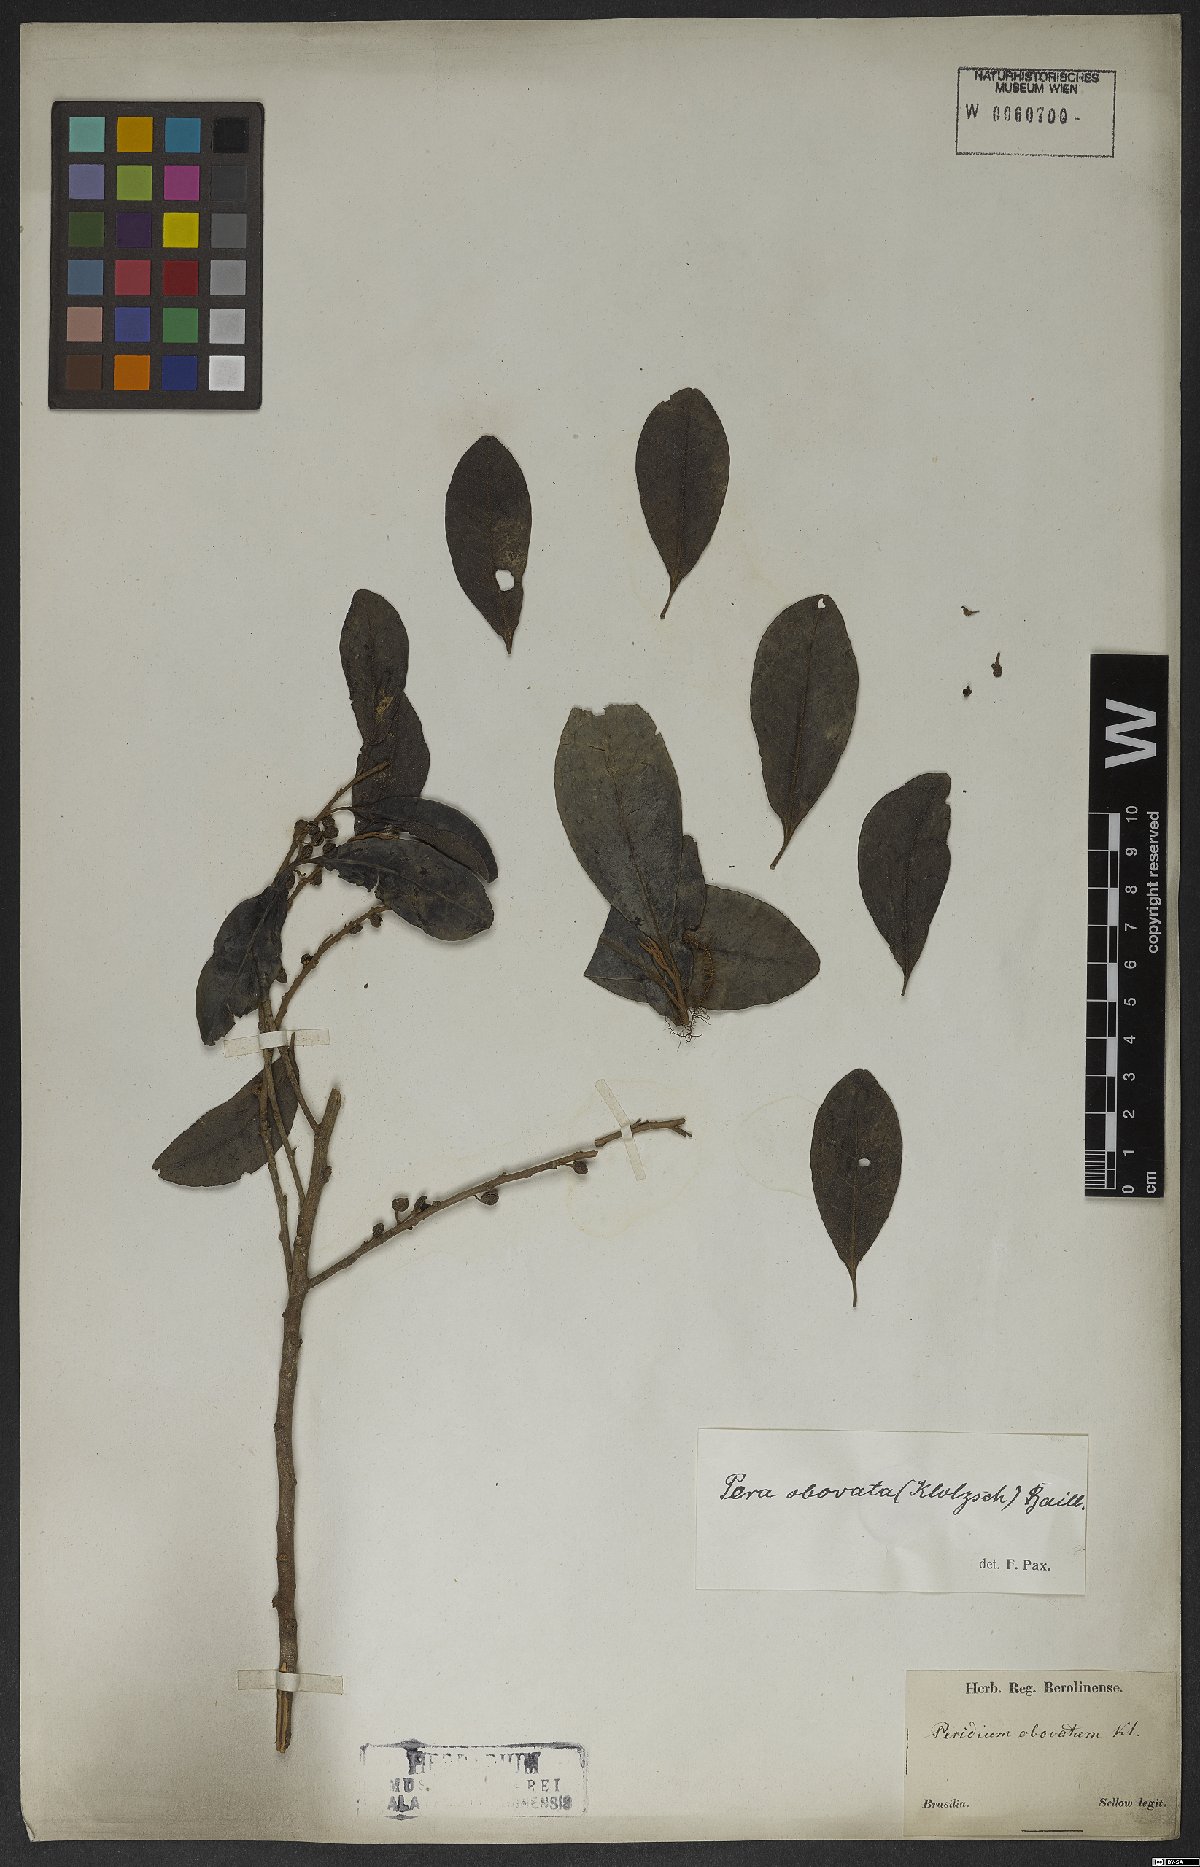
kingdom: Plantae
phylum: Tracheophyta
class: Magnoliopsida
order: Malpighiales
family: Peraceae
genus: Pera
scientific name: Pera glabrata
